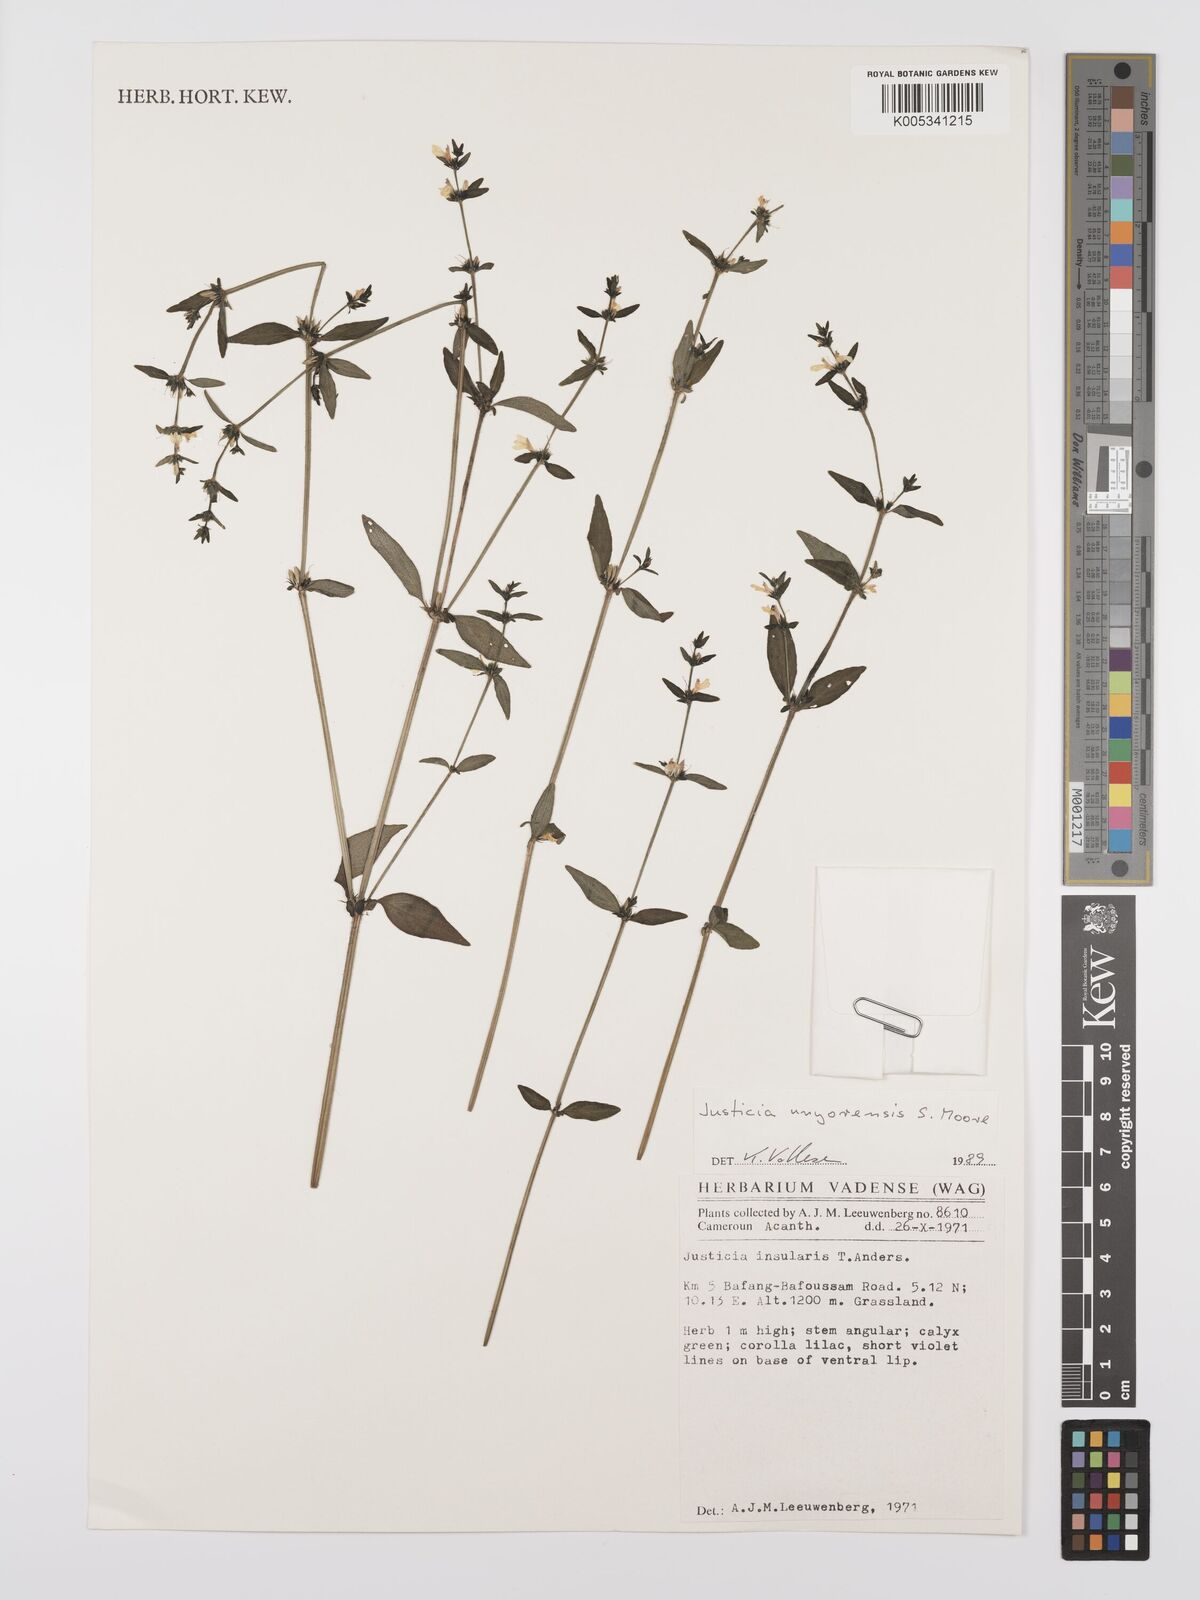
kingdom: Plantae
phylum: Tracheophyta
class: Magnoliopsida
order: Lamiales
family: Acanthaceae
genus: Justicia
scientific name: Justicia unyorensis
